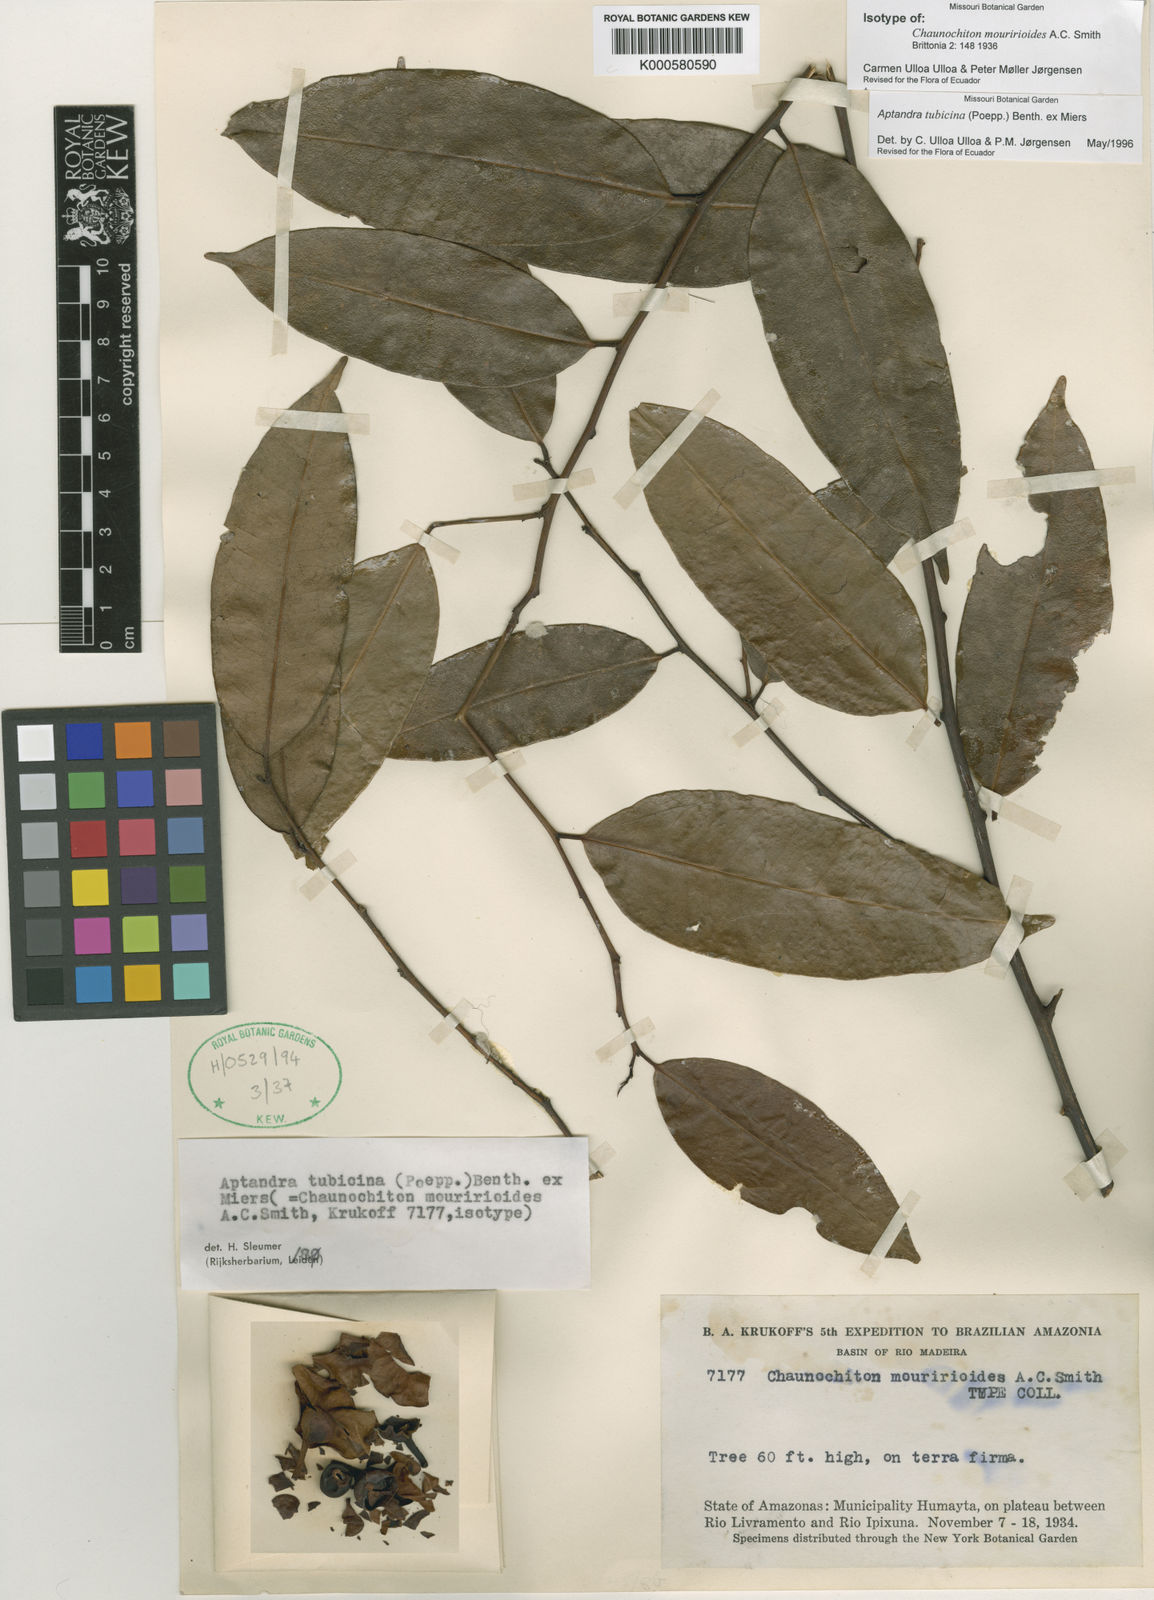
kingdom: Plantae
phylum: Tracheophyta
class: Magnoliopsida
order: Santalales
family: Aptandraceae
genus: Aptandra
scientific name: Aptandra tubicina
